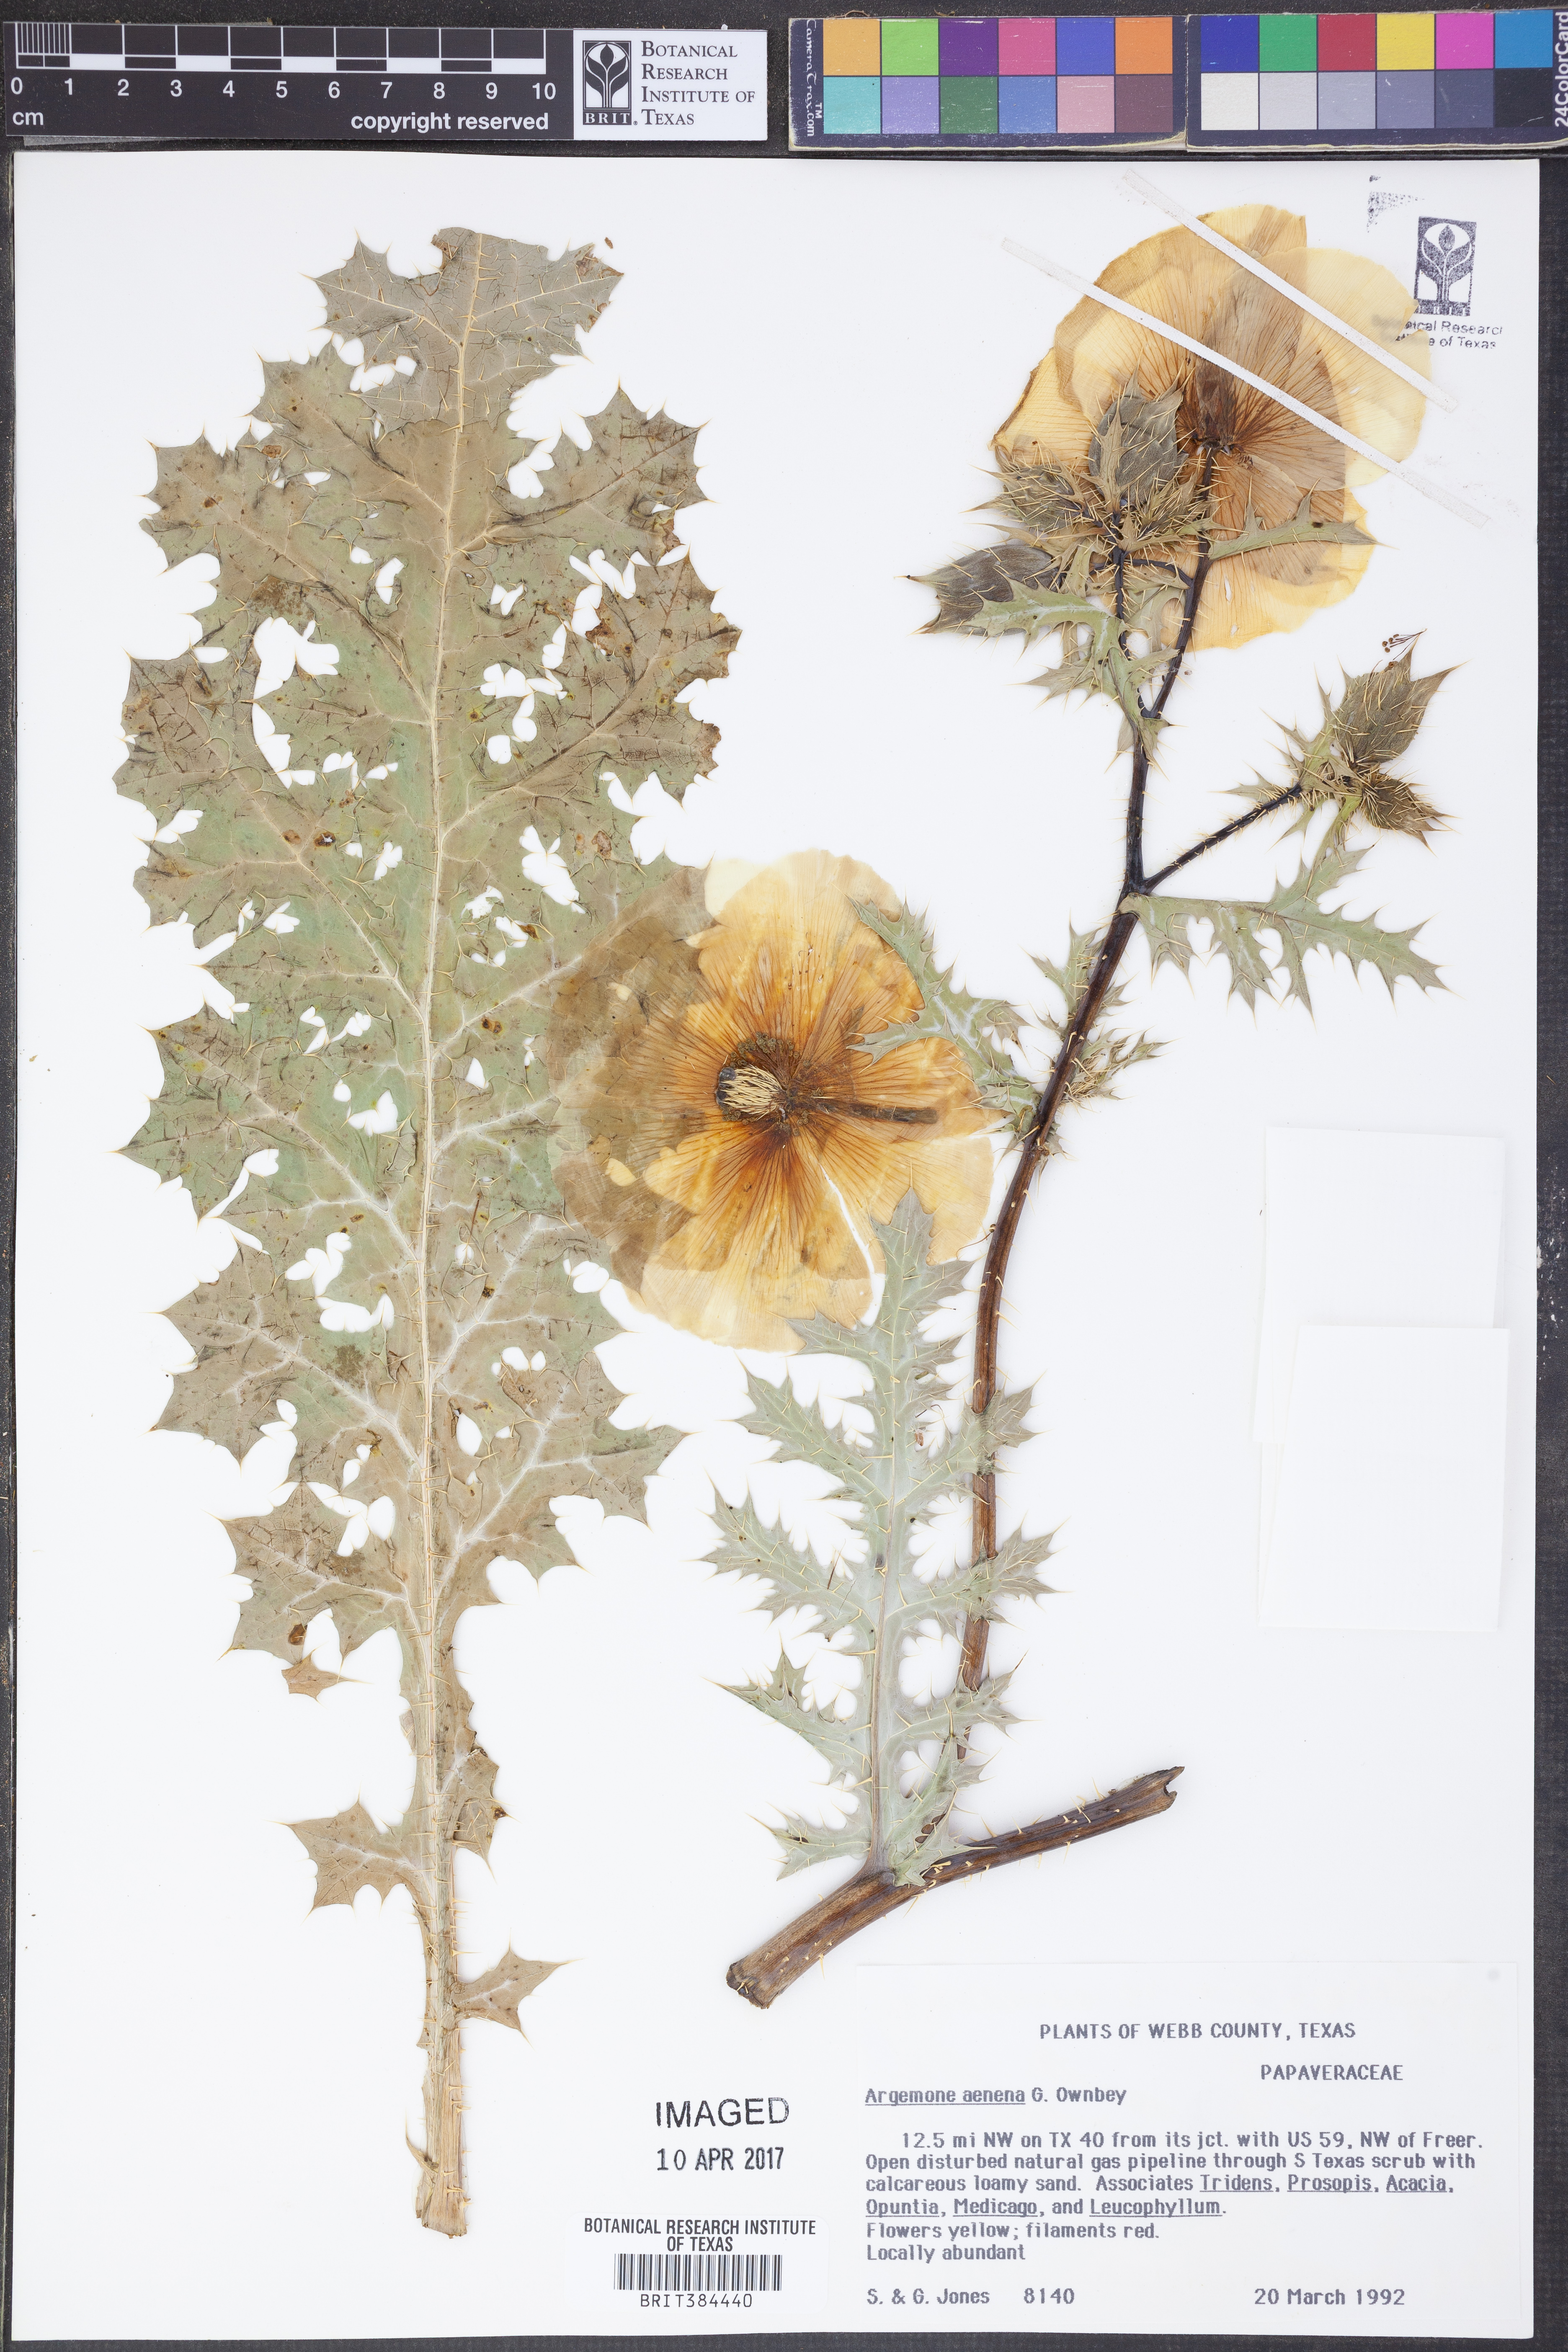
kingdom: Plantae
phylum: Tracheophyta
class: Magnoliopsida
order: Ranunculales
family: Papaveraceae
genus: Argemone
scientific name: Argemone aenea
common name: Golden prickly-poppy
